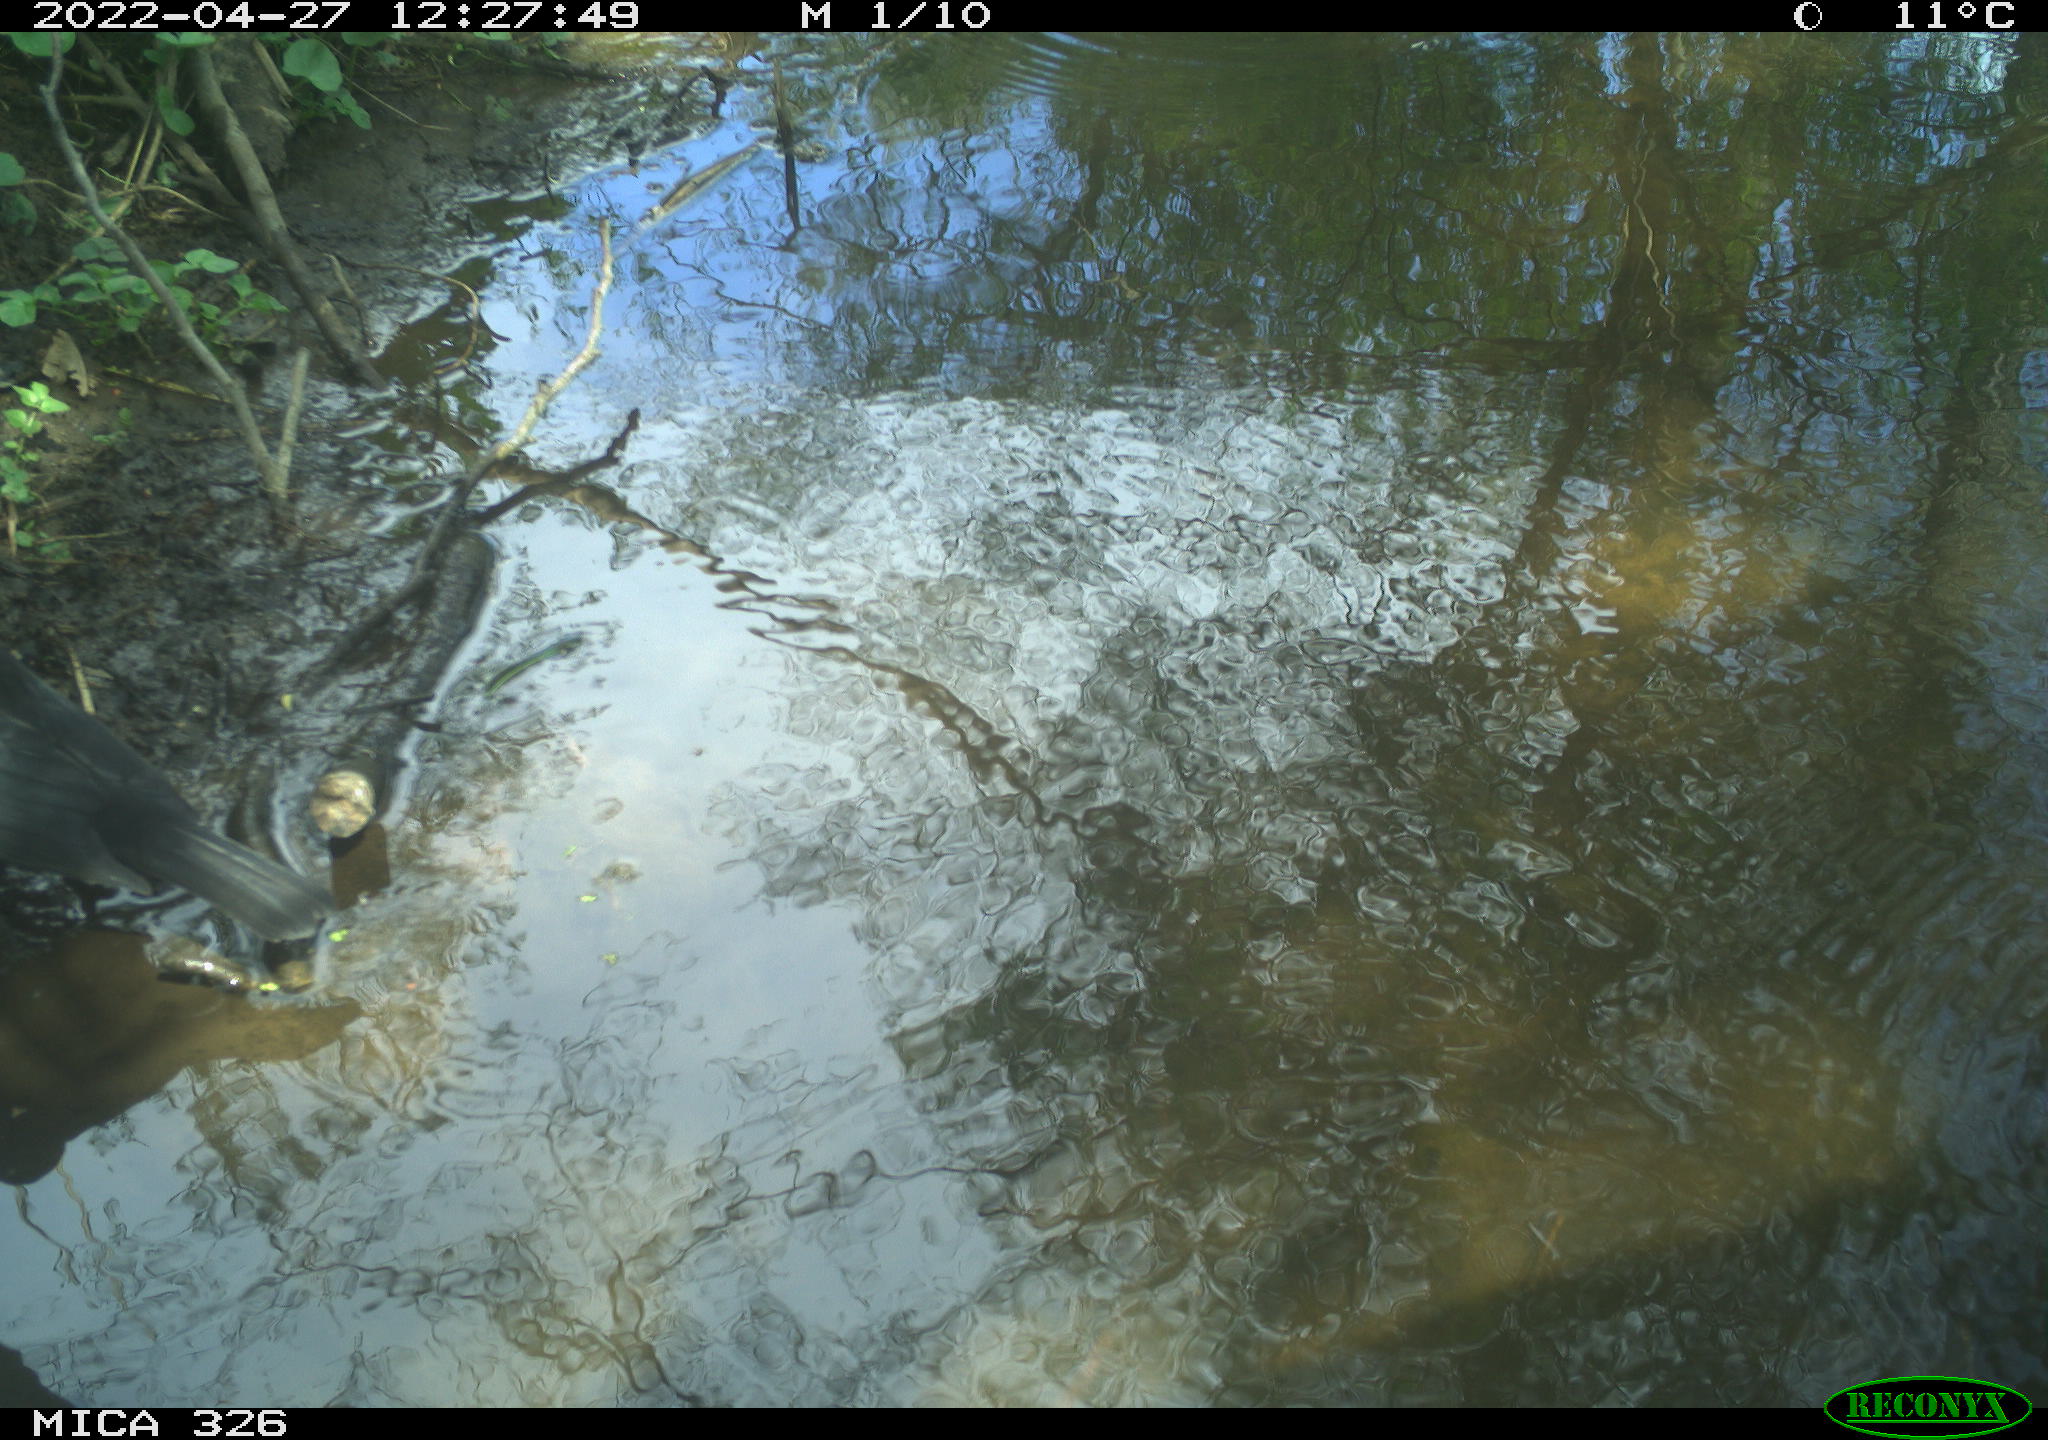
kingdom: Animalia
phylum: Chordata
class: Aves
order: Passeriformes
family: Turdidae
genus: Turdus
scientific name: Turdus merula
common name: Common blackbird
